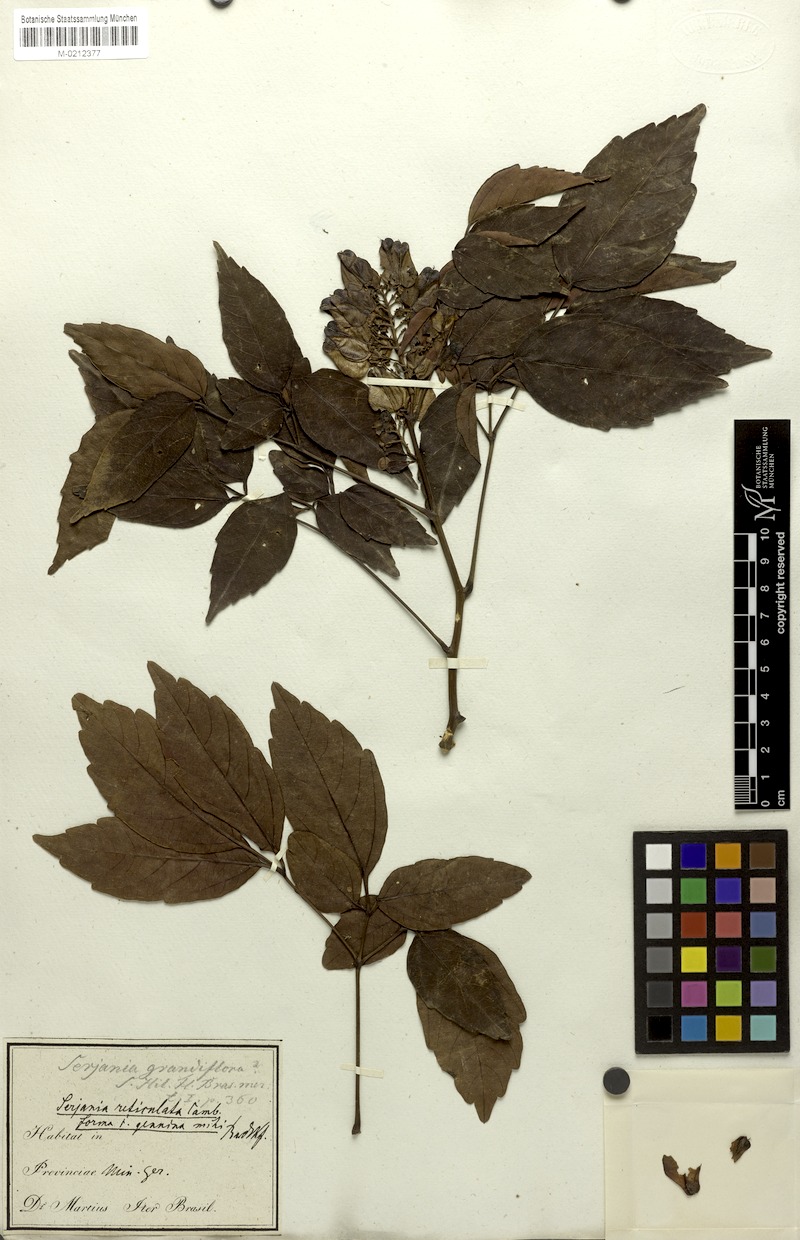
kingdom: Plantae
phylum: Tracheophyta
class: Magnoliopsida
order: Sapindales
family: Sapindaceae
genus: Serjania
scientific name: Serjania reticulata
